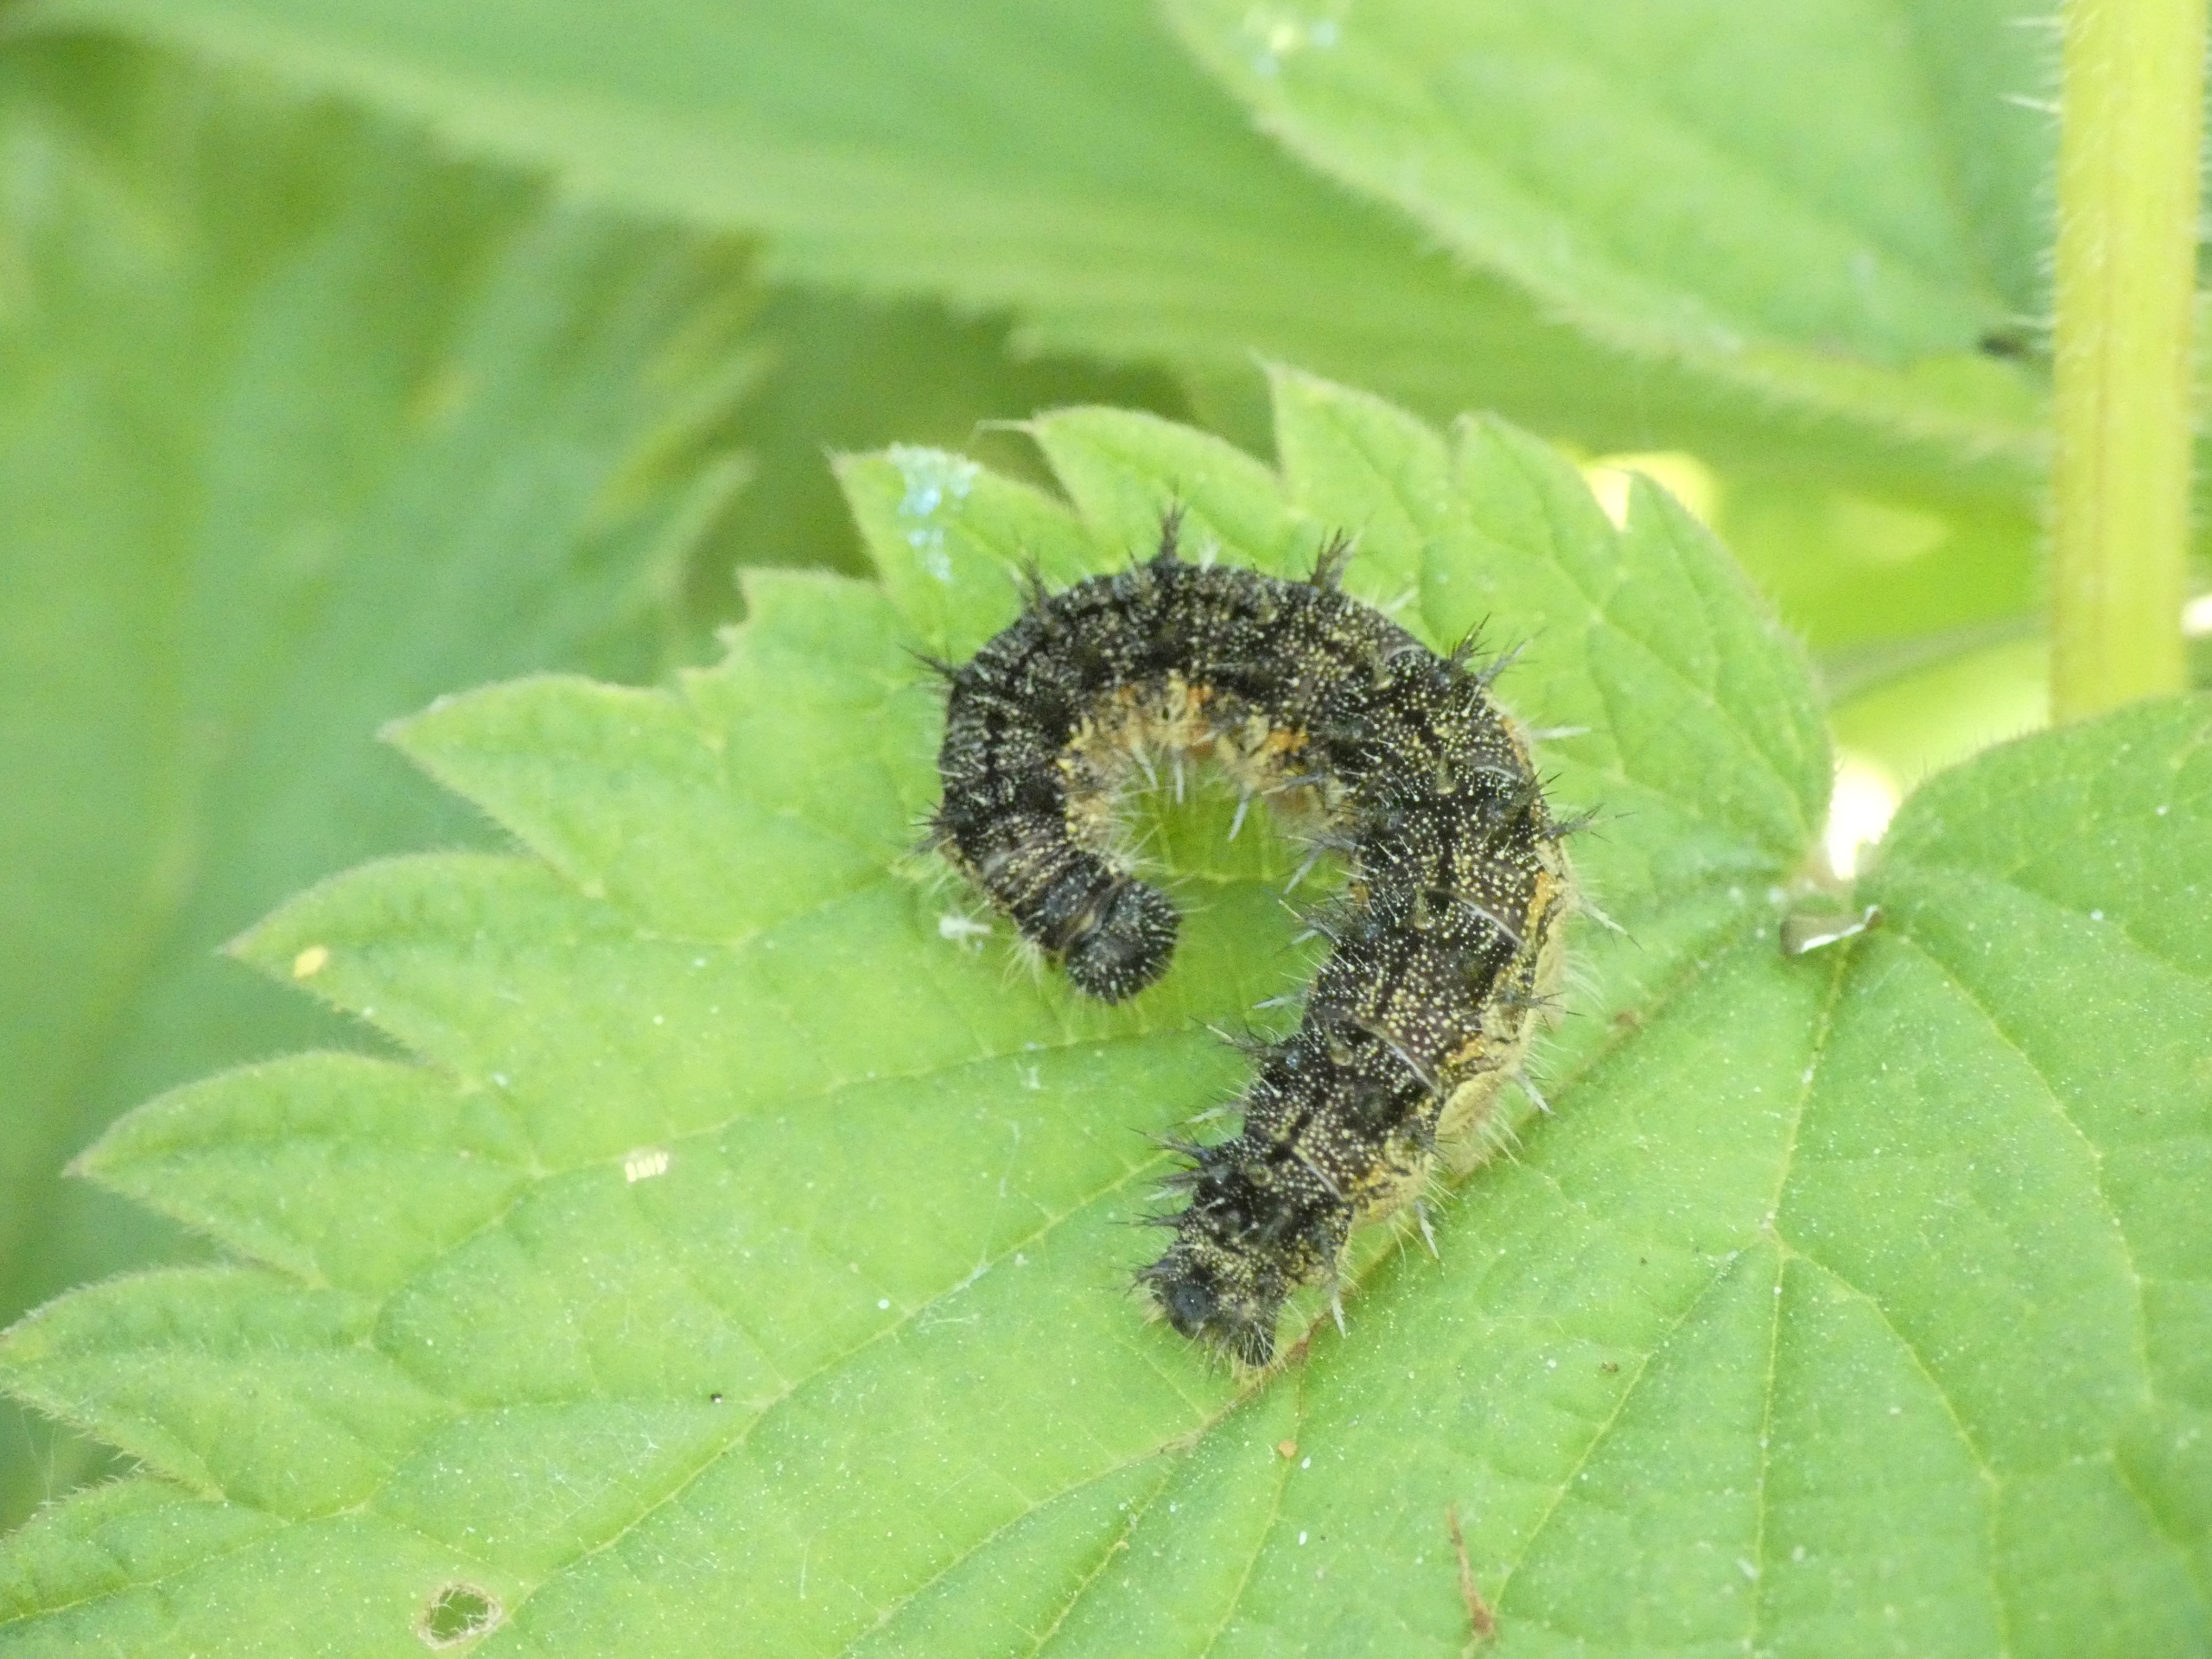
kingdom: Animalia
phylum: Arthropoda
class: Insecta
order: Lepidoptera
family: Nymphalidae
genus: Aglais
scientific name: Aglais urticae
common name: Nældens takvinge
